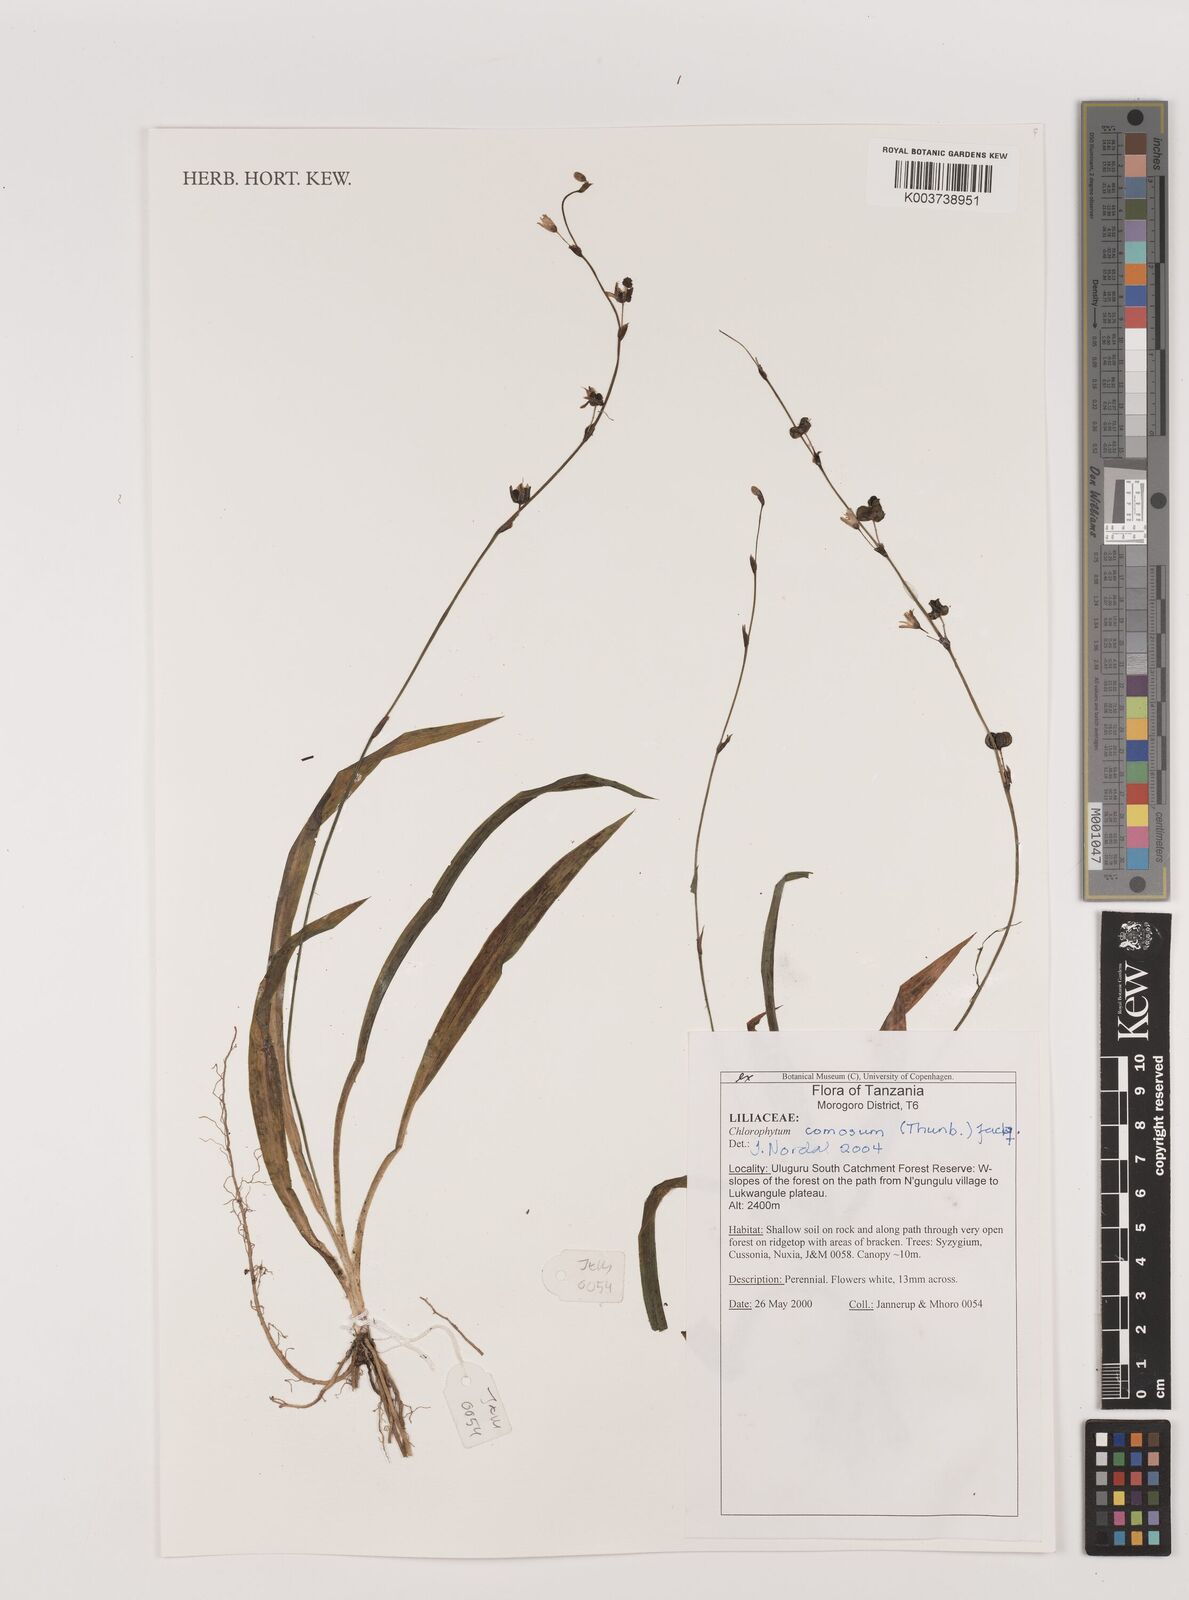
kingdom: Plantae
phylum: Tracheophyta
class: Liliopsida
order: Asparagales
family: Asparagaceae
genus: Chlorophytum
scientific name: Chlorophytum comosum
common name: Spider plant
